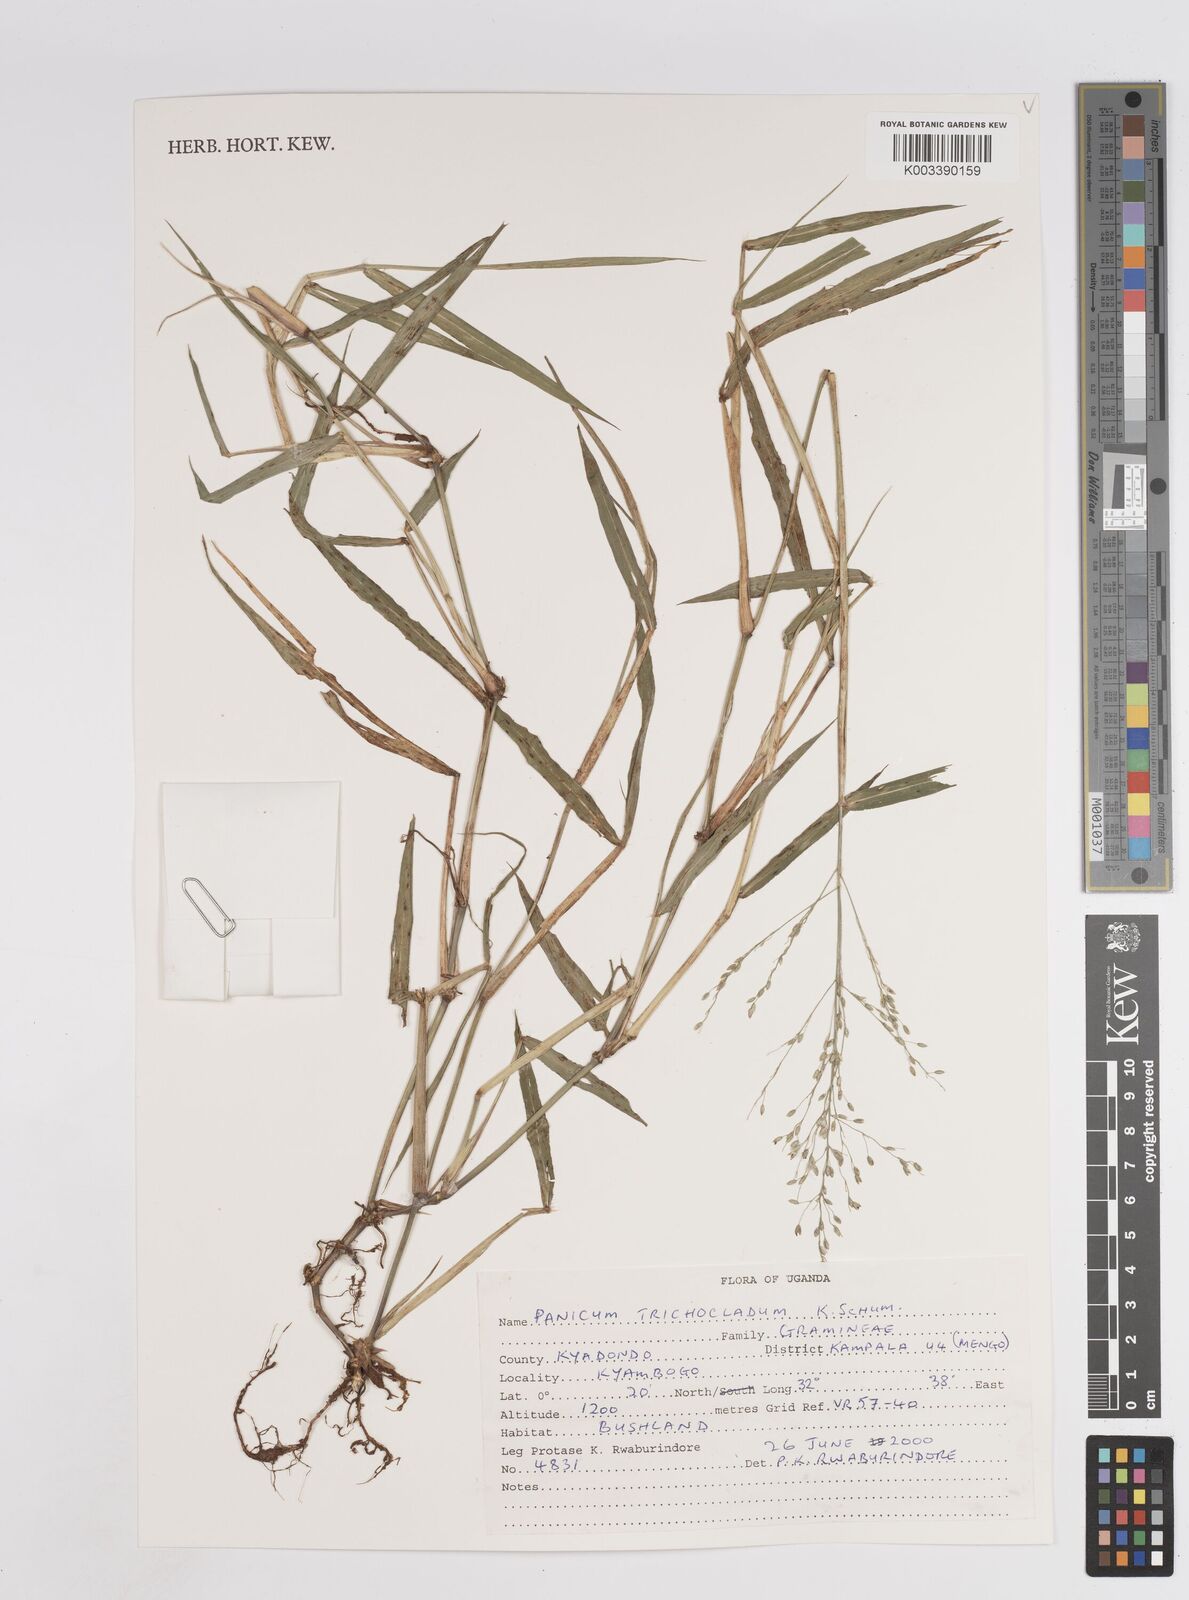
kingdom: Plantae
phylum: Tracheophyta
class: Liliopsida
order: Poales
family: Poaceae
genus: Panicum
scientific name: Panicum trichocladum
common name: Donkey grass
